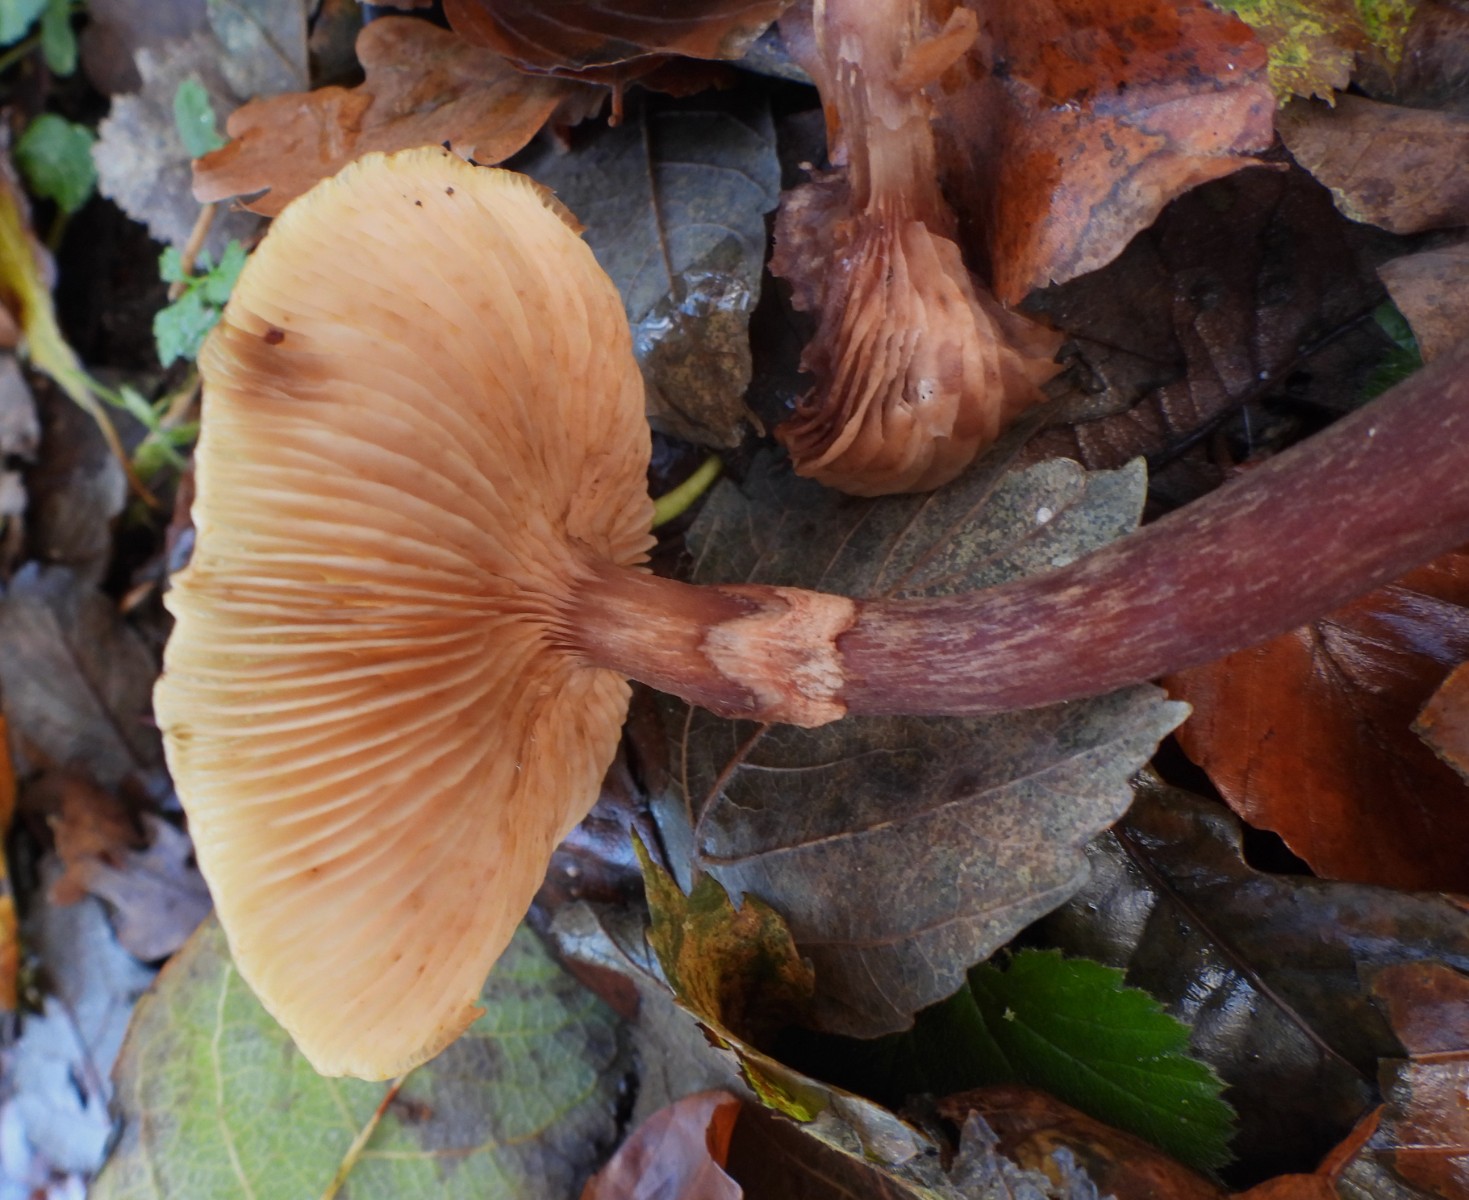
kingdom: Fungi
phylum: Basidiomycota
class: Agaricomycetes
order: Agaricales
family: Physalacriaceae
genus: Armillaria
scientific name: Armillaria mellea
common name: ægte honningsvamp
